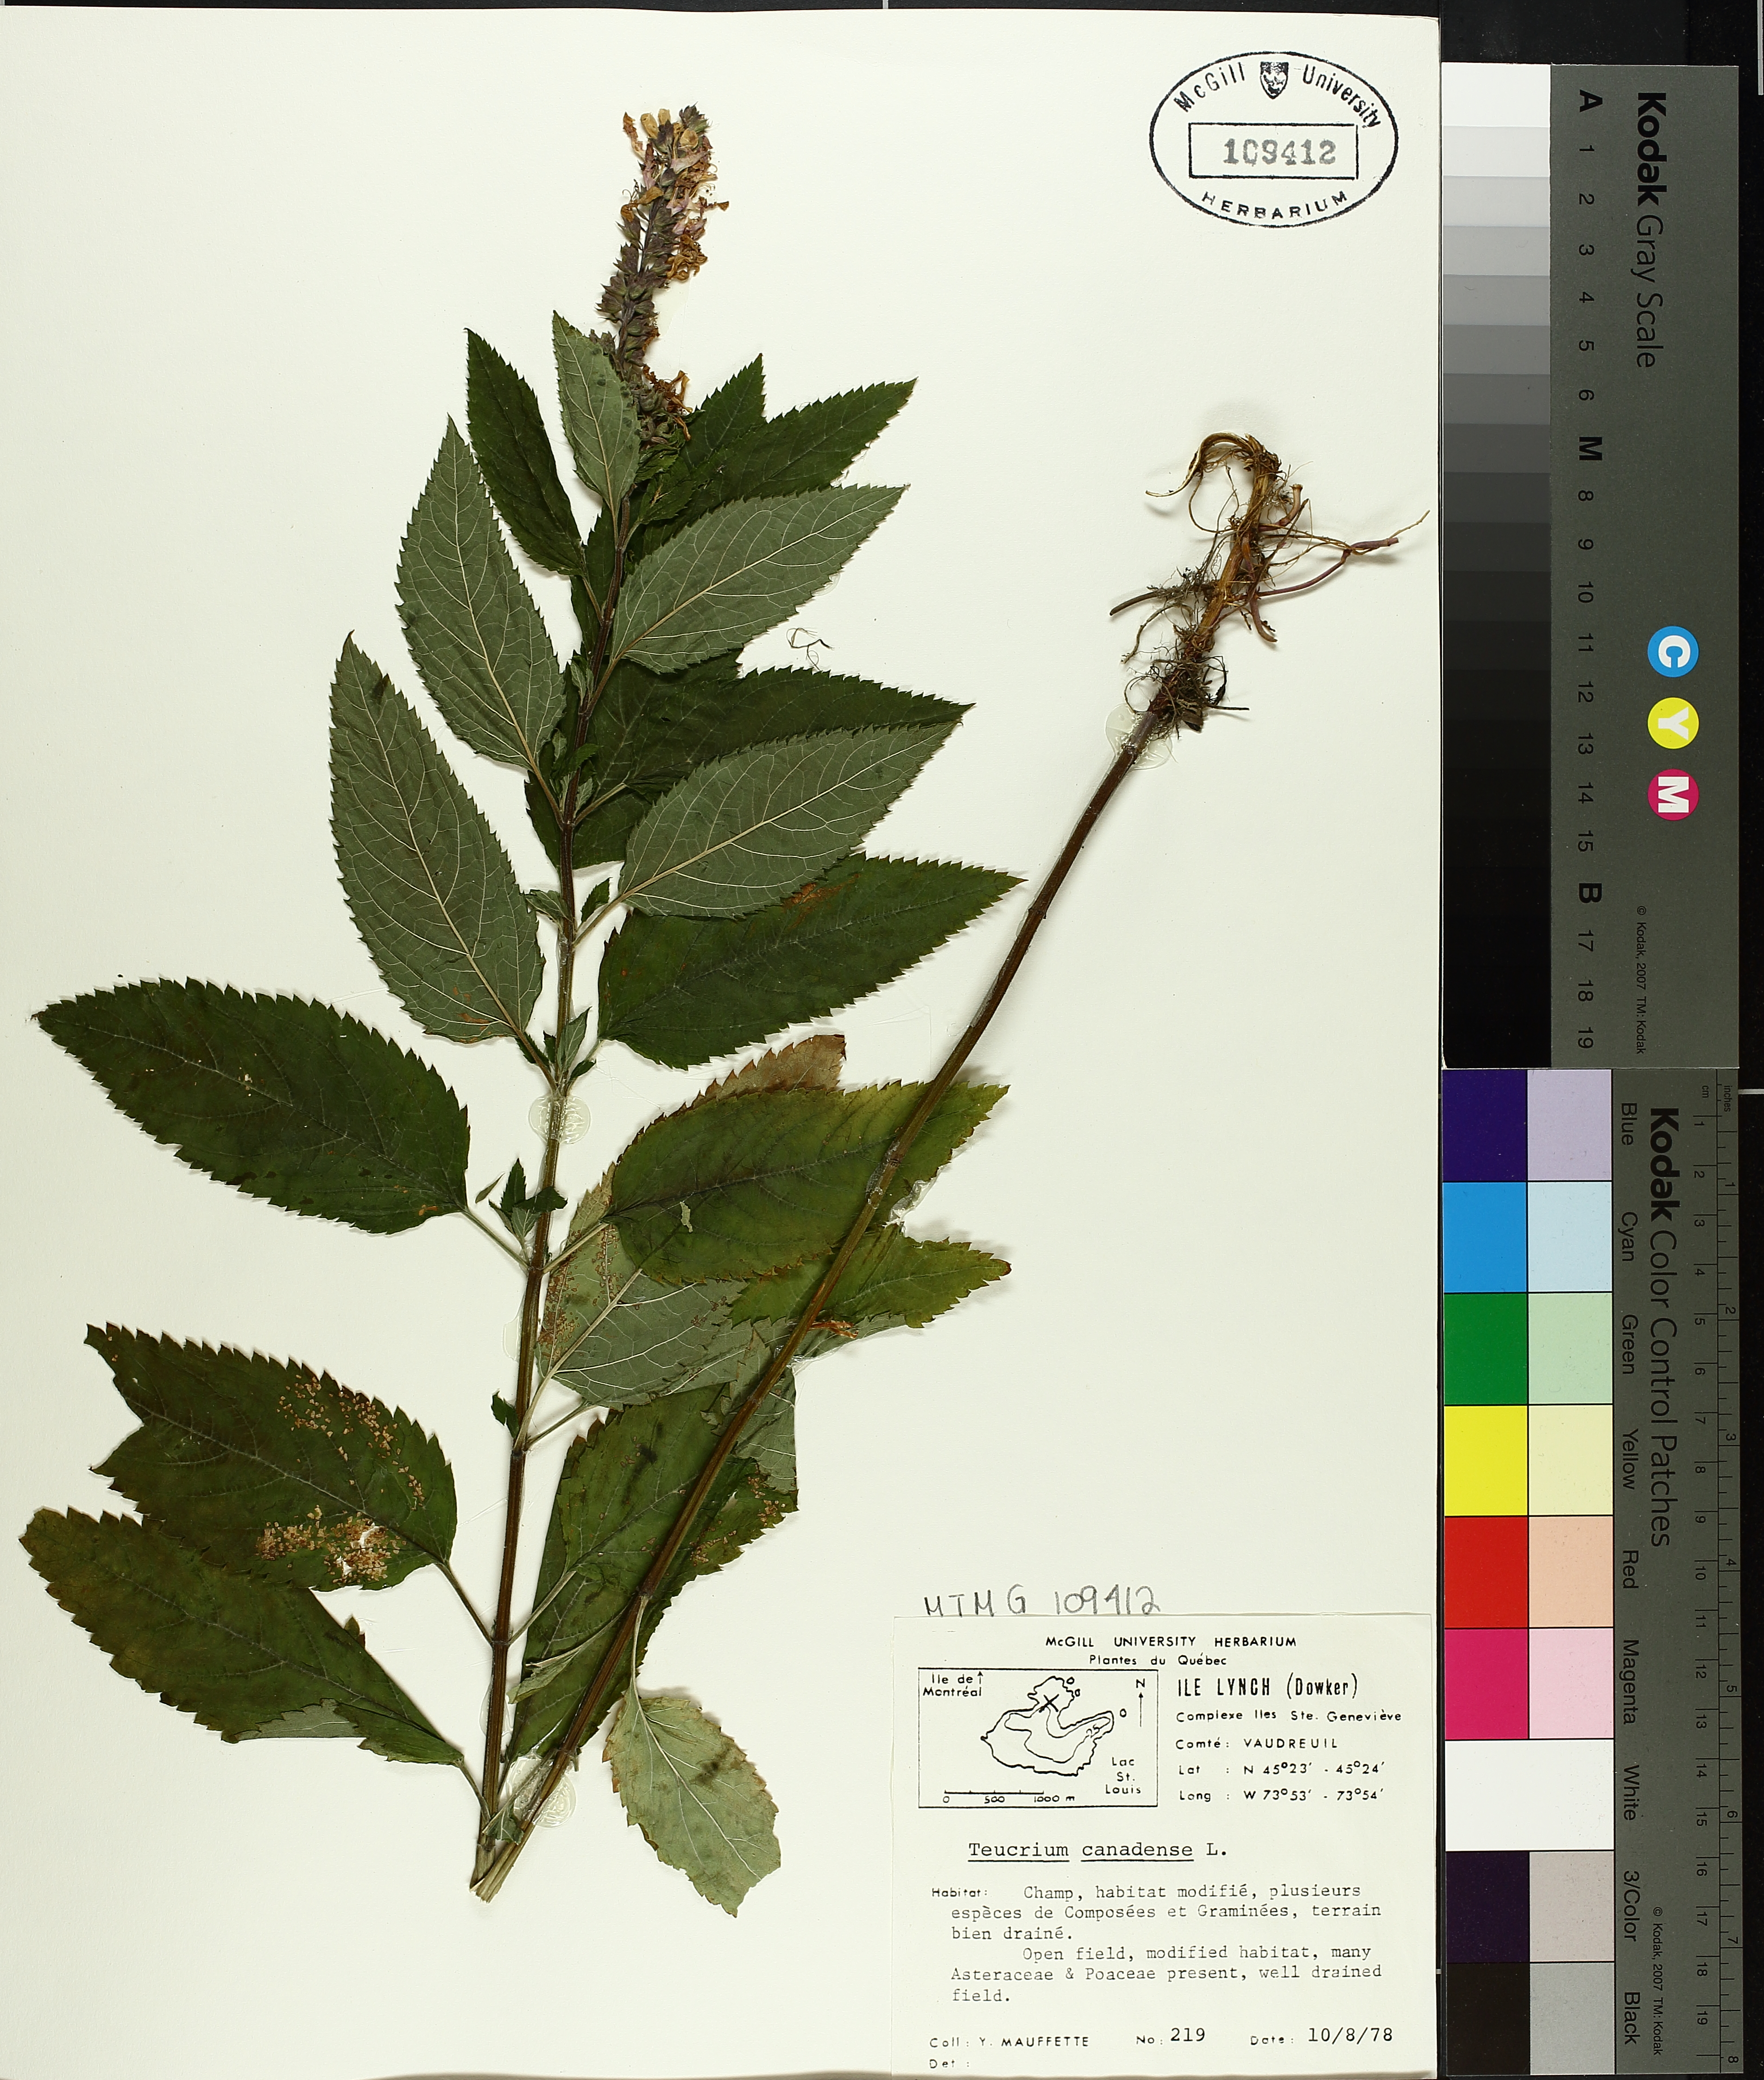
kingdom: Plantae
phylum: Tracheophyta
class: Magnoliopsida
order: Lamiales
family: Lamiaceae
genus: Teucrium
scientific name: Teucrium canadense
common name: American germander
